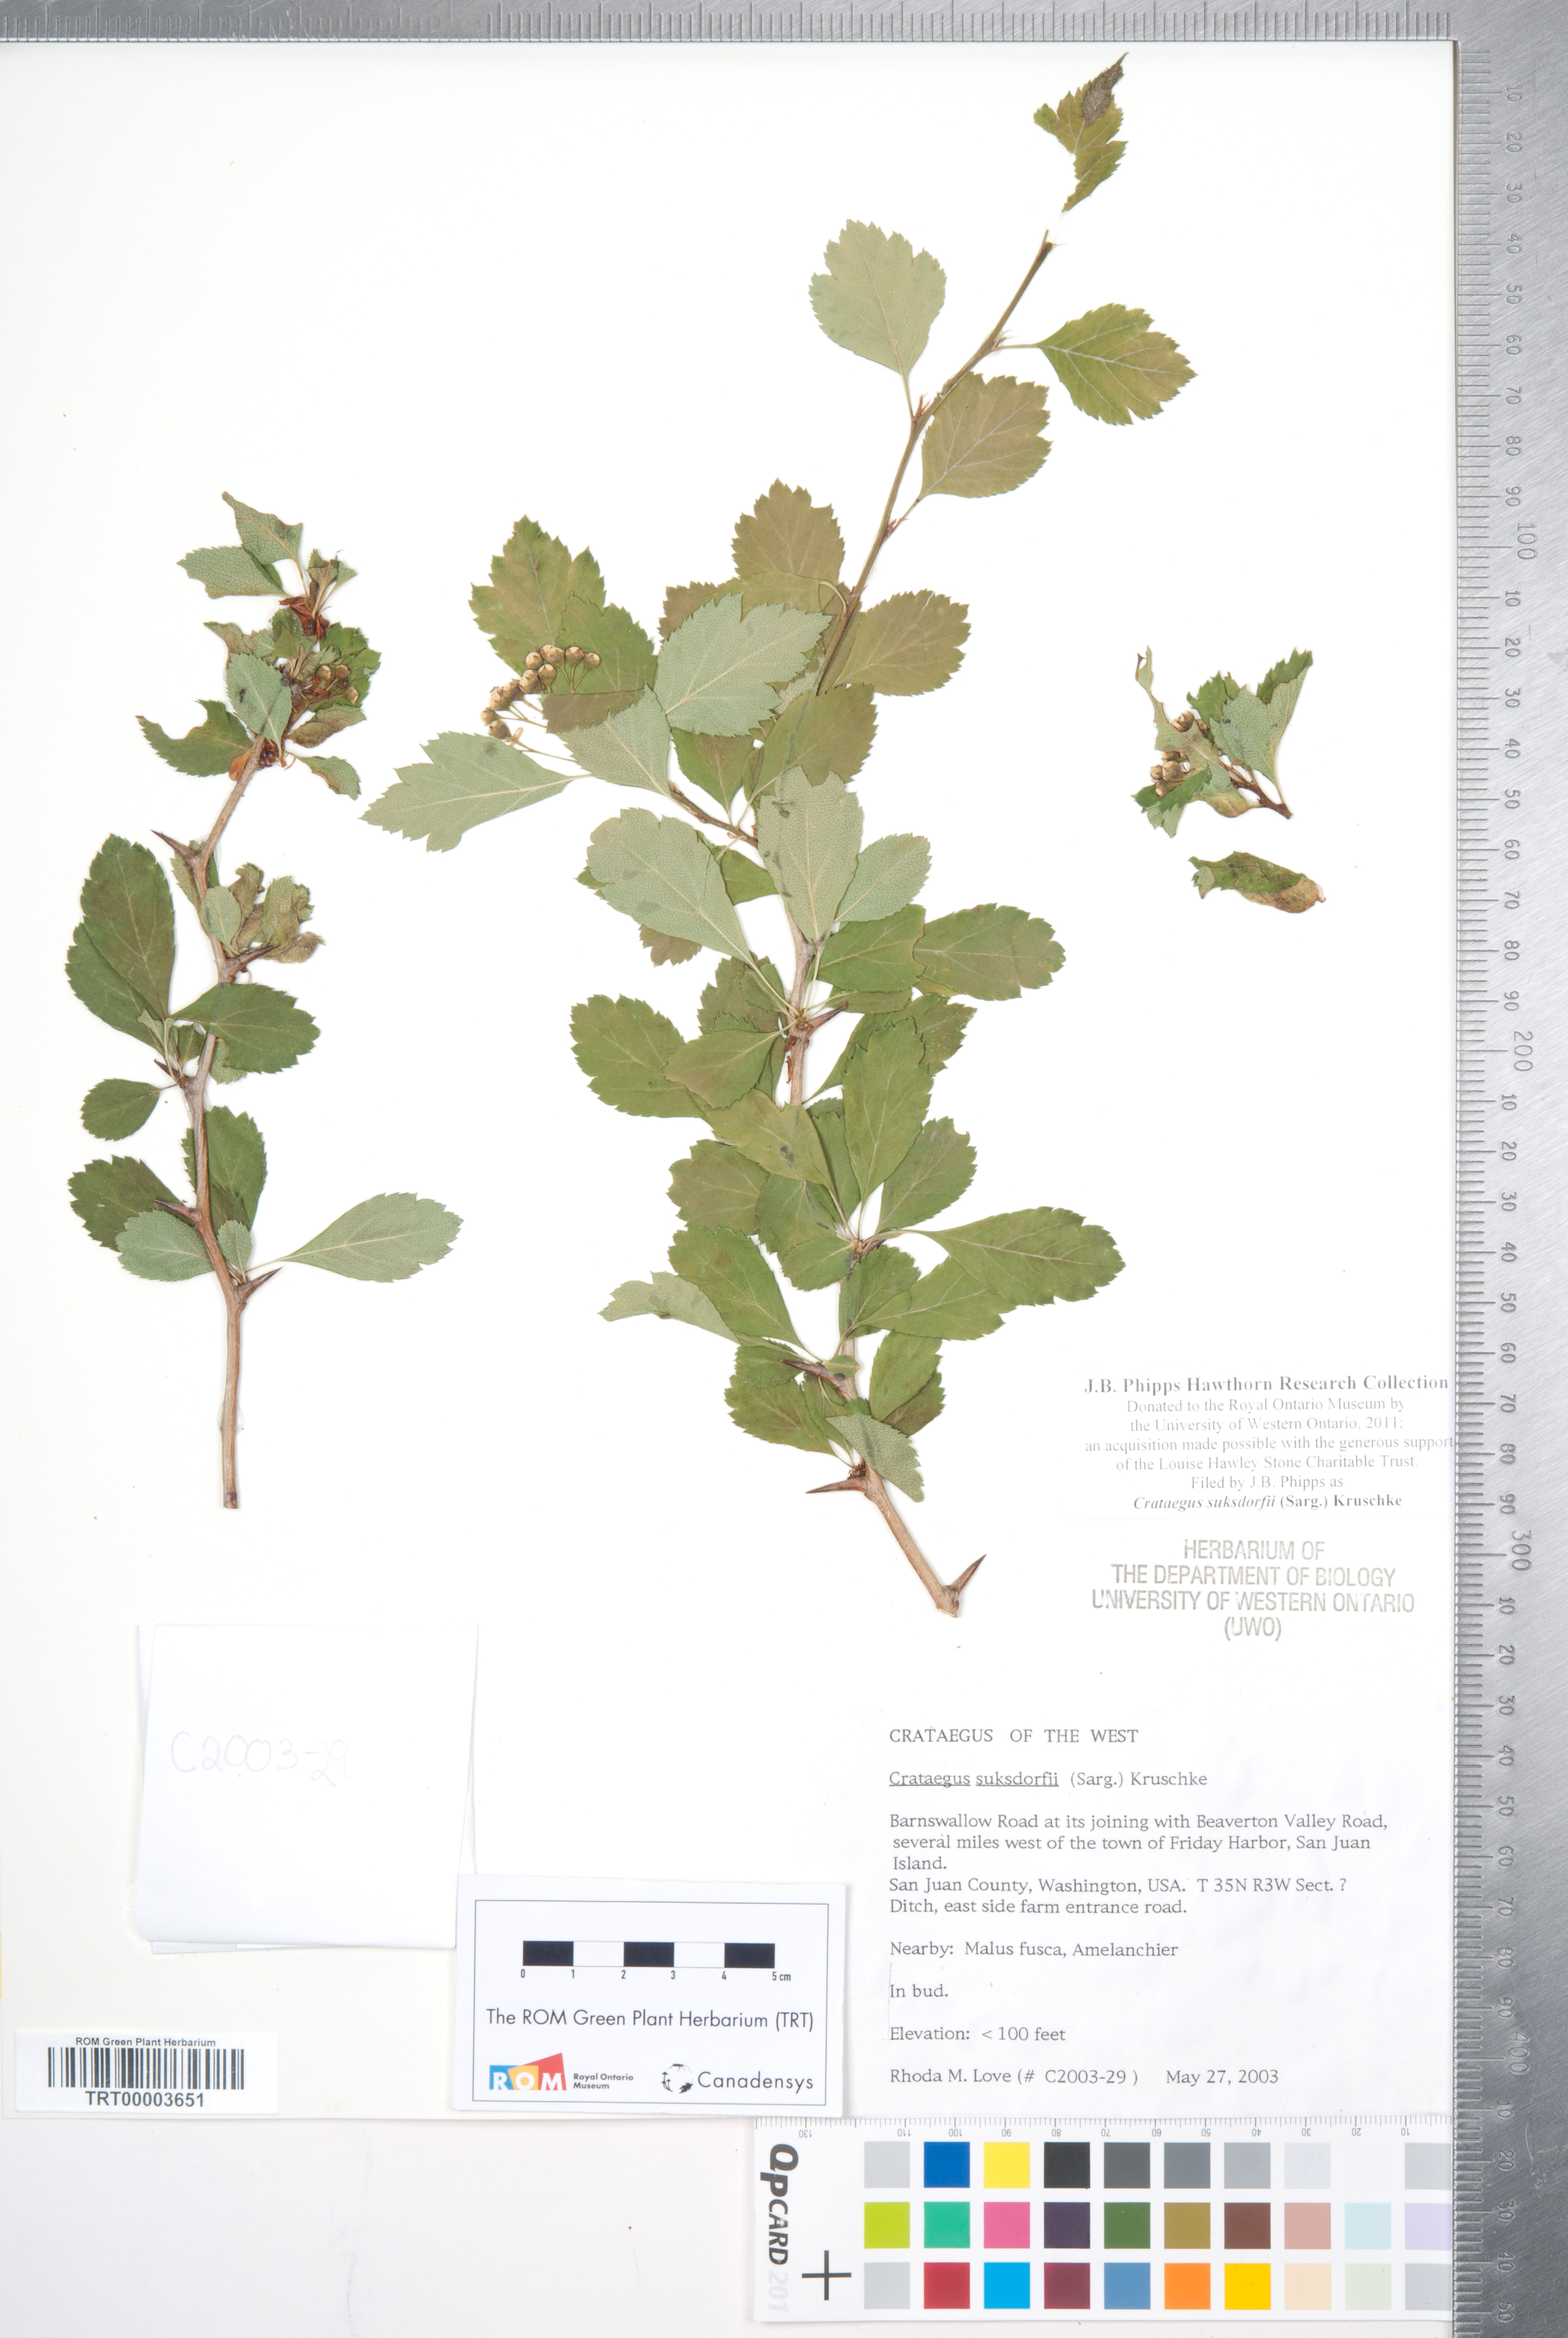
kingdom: Plantae
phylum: Tracheophyta
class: Magnoliopsida
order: Rosales
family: Rosaceae
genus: Crataegus
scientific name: Crataegus gaylussacia
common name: Huckleberry hawthorn
